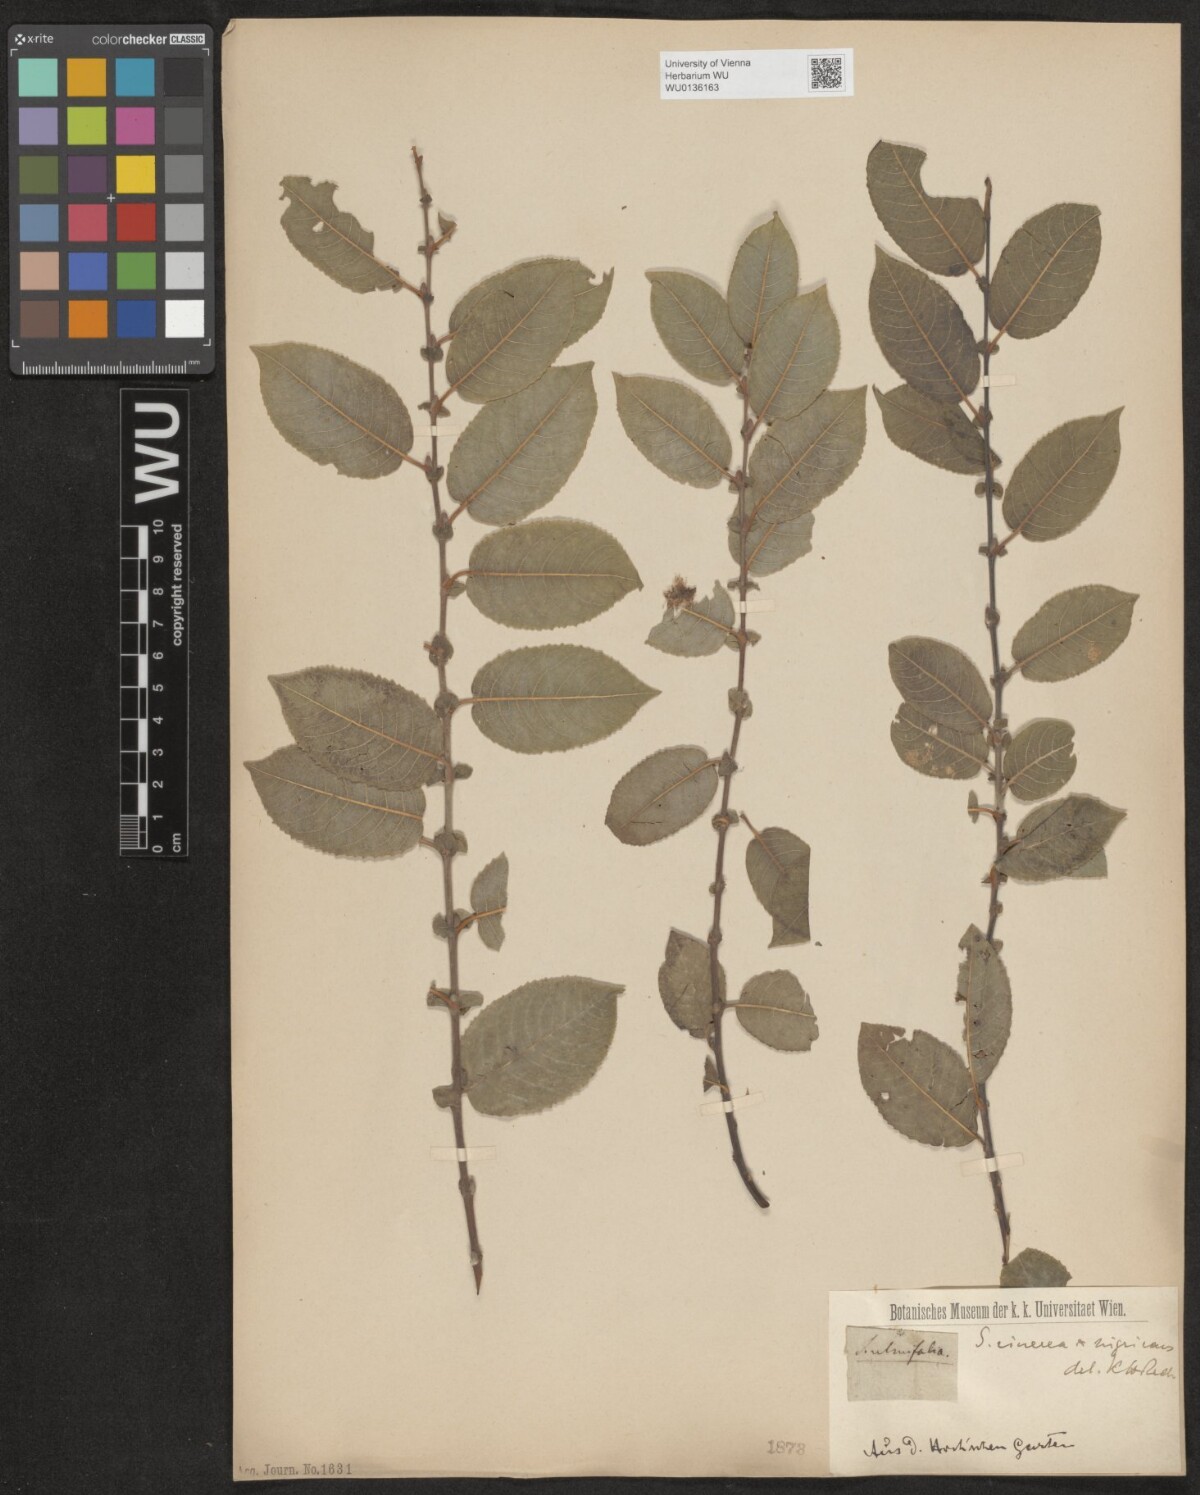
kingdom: Plantae
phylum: Tracheophyta
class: Magnoliopsida
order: Malpighiales
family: Salicaceae
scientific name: Salicaceae
